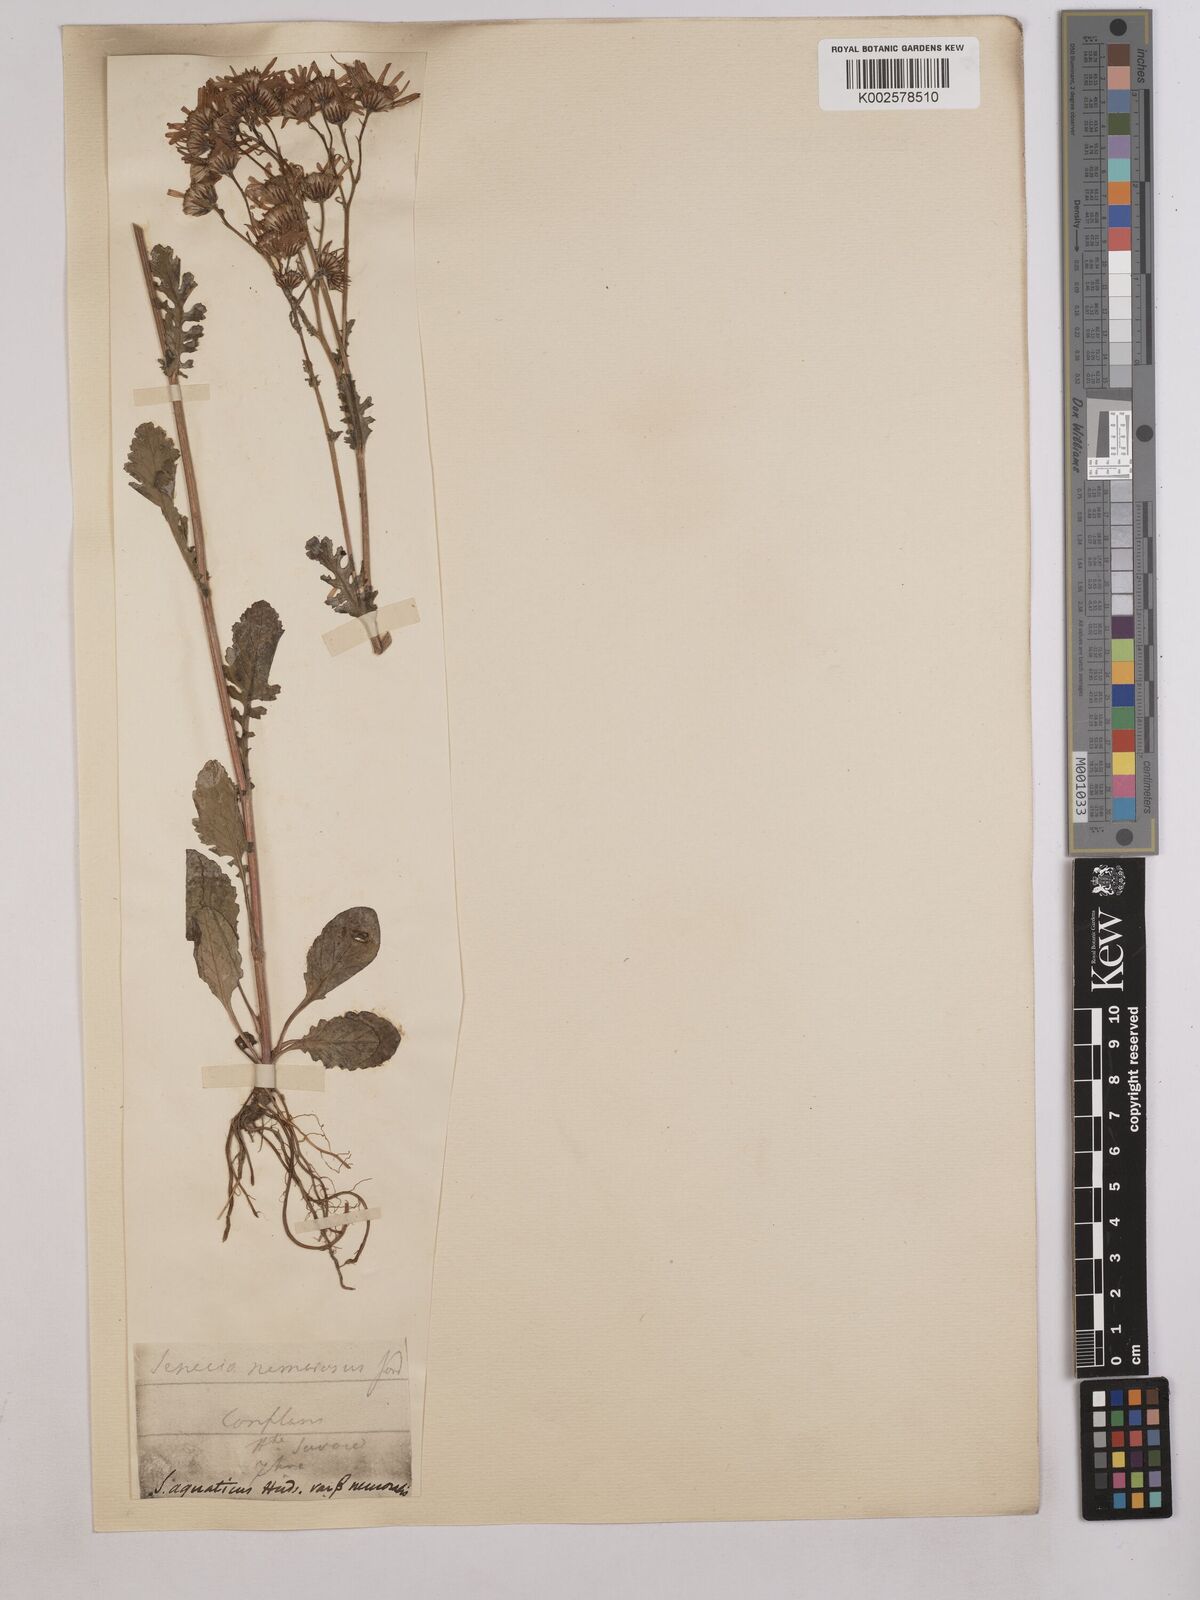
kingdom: Plantae
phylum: Tracheophyta
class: Magnoliopsida
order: Asterales
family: Asteraceae
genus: Senecio
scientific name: Senecio
